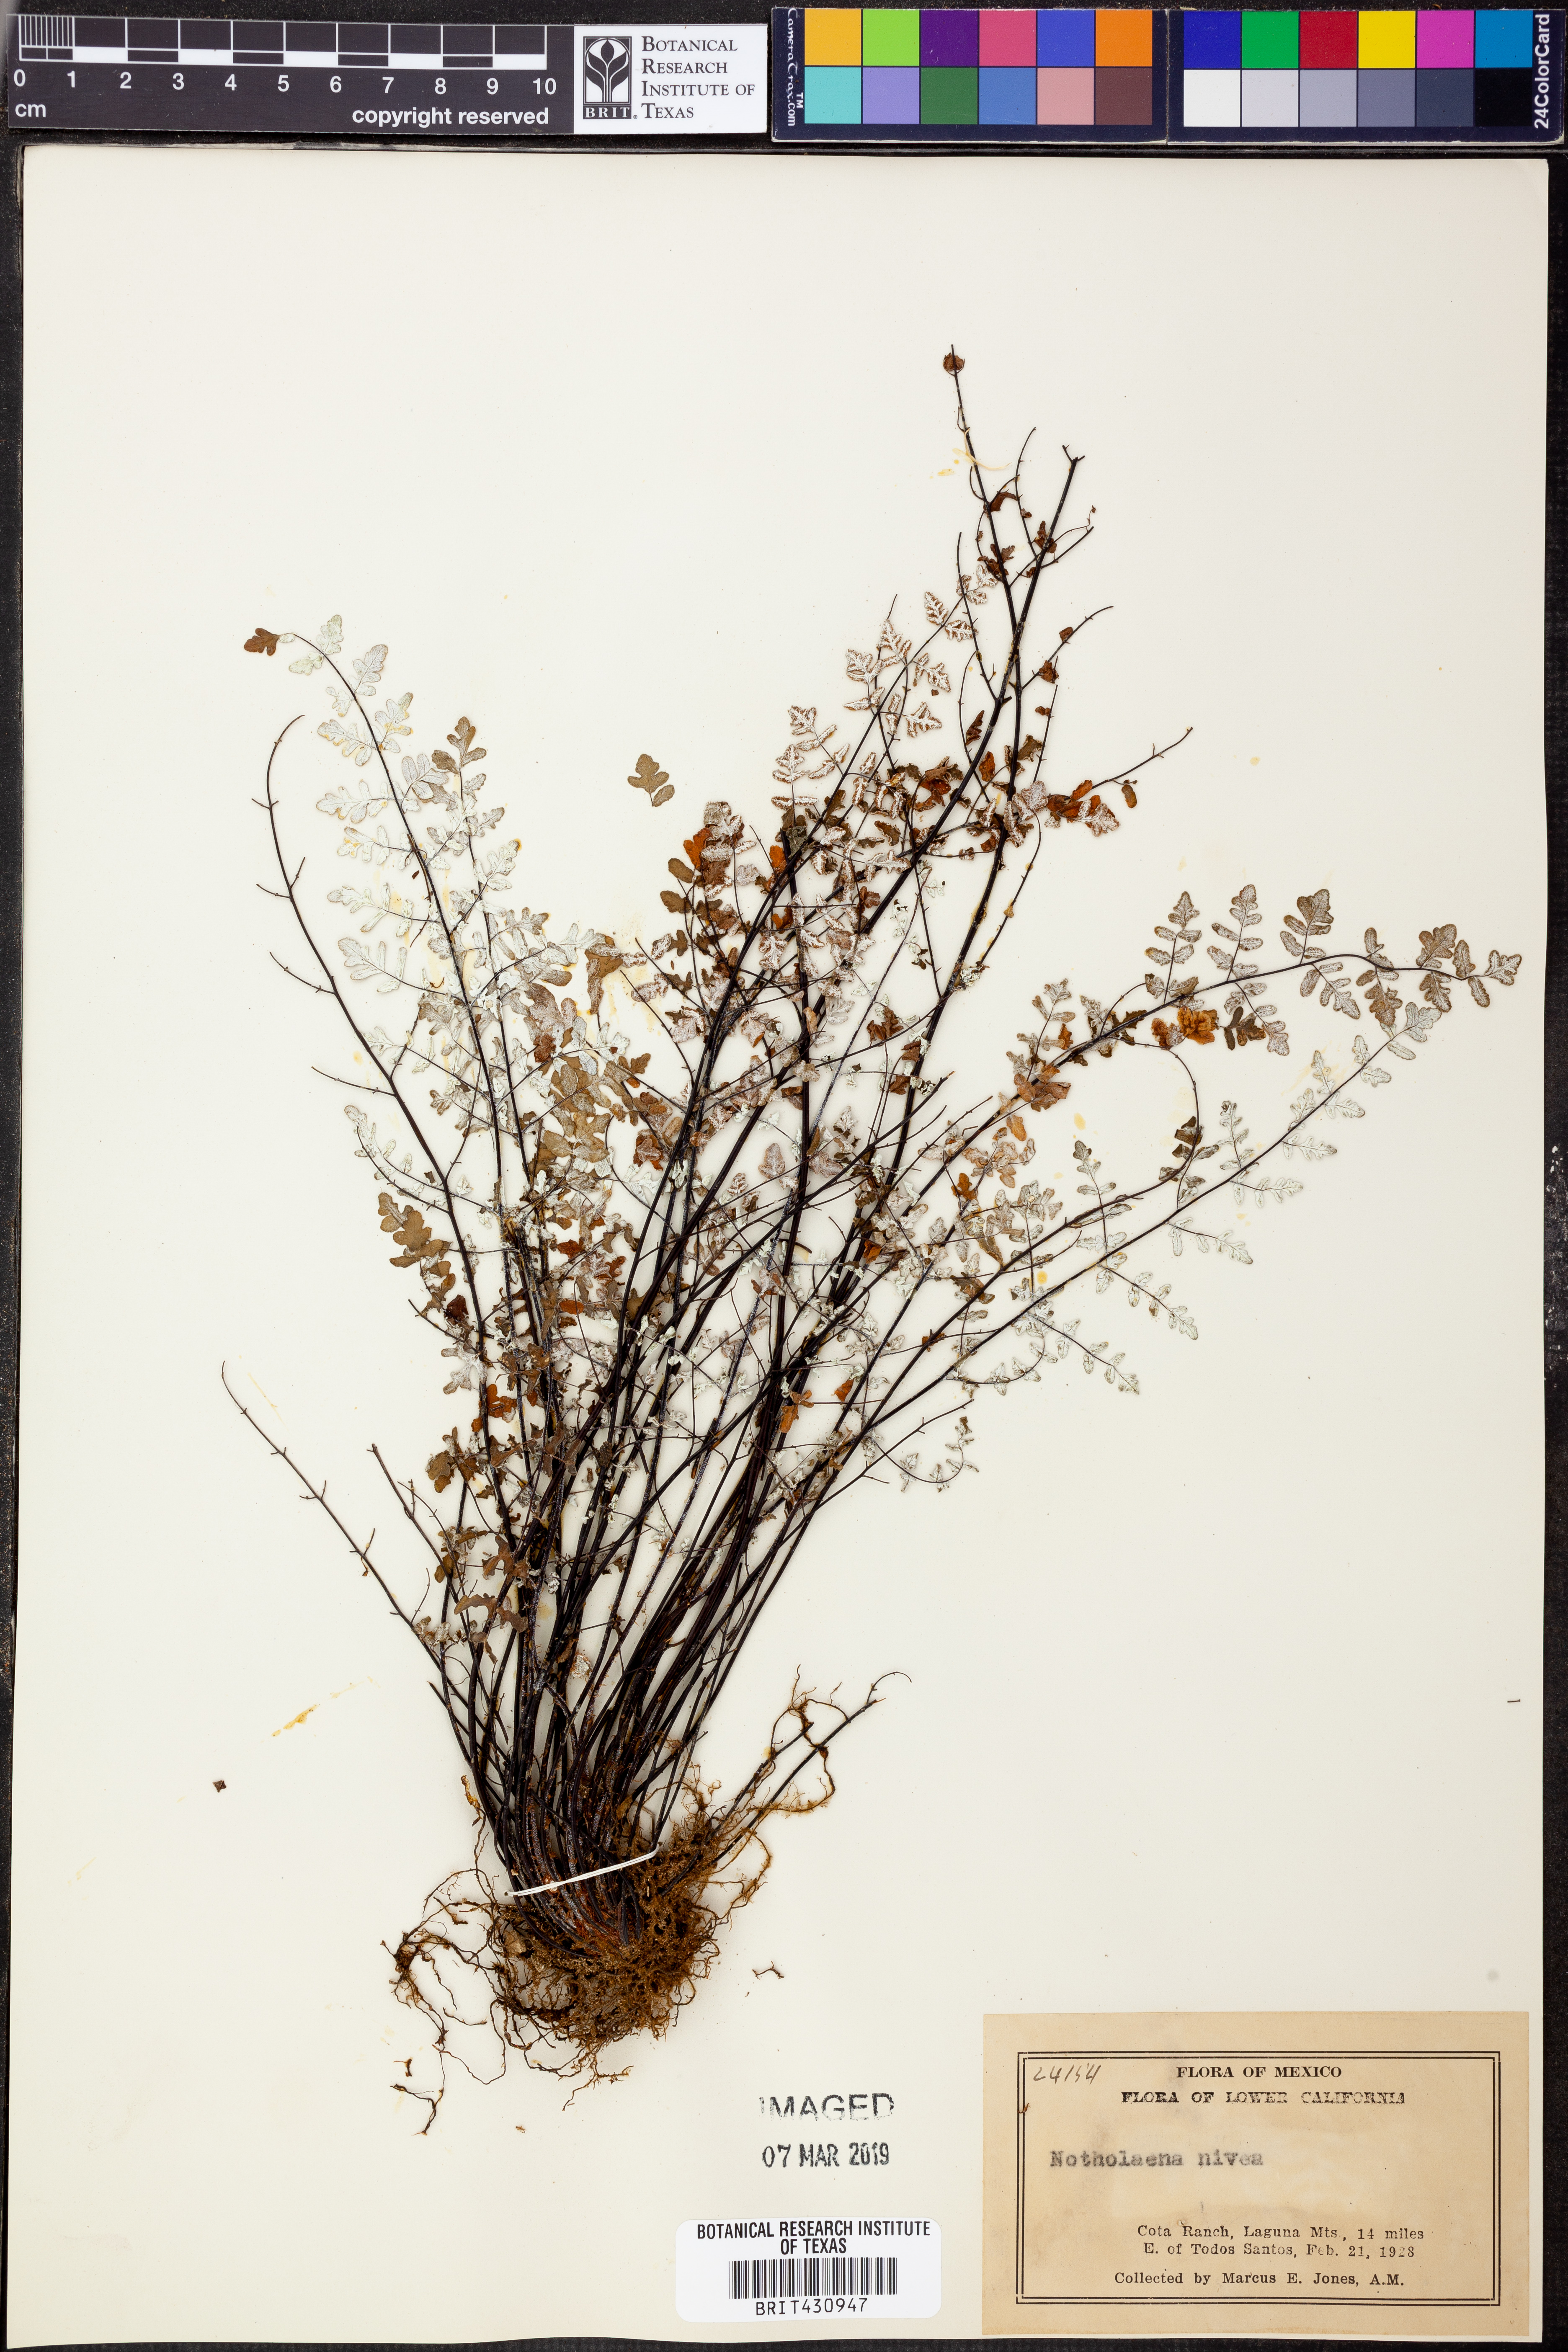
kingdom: Plantae
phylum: Tracheophyta
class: Polypodiopsida
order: Polypodiales
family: Pteridaceae
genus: Argyrochosma
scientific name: Argyrochosma nivea
